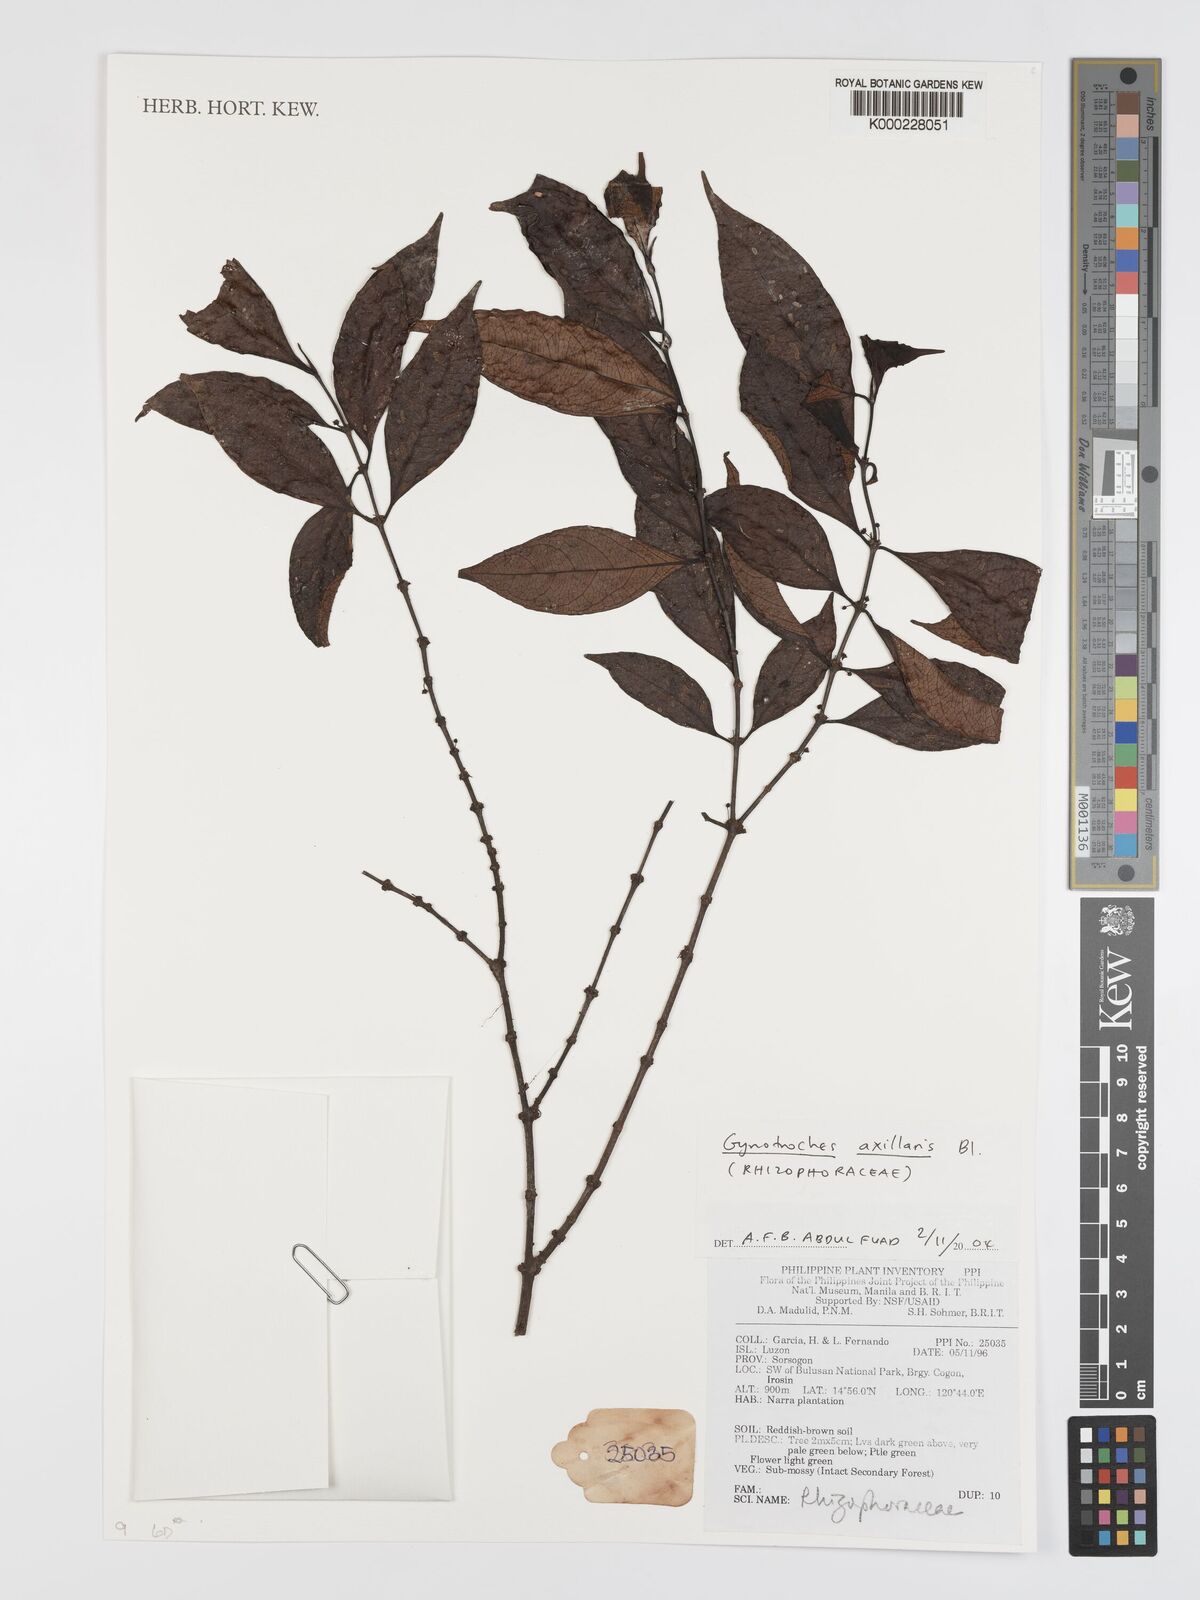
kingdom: Plantae
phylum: Tracheophyta
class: Magnoliopsida
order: Malpighiales
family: Rhizophoraceae
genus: Gynotroches
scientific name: Gynotroches axillaris
